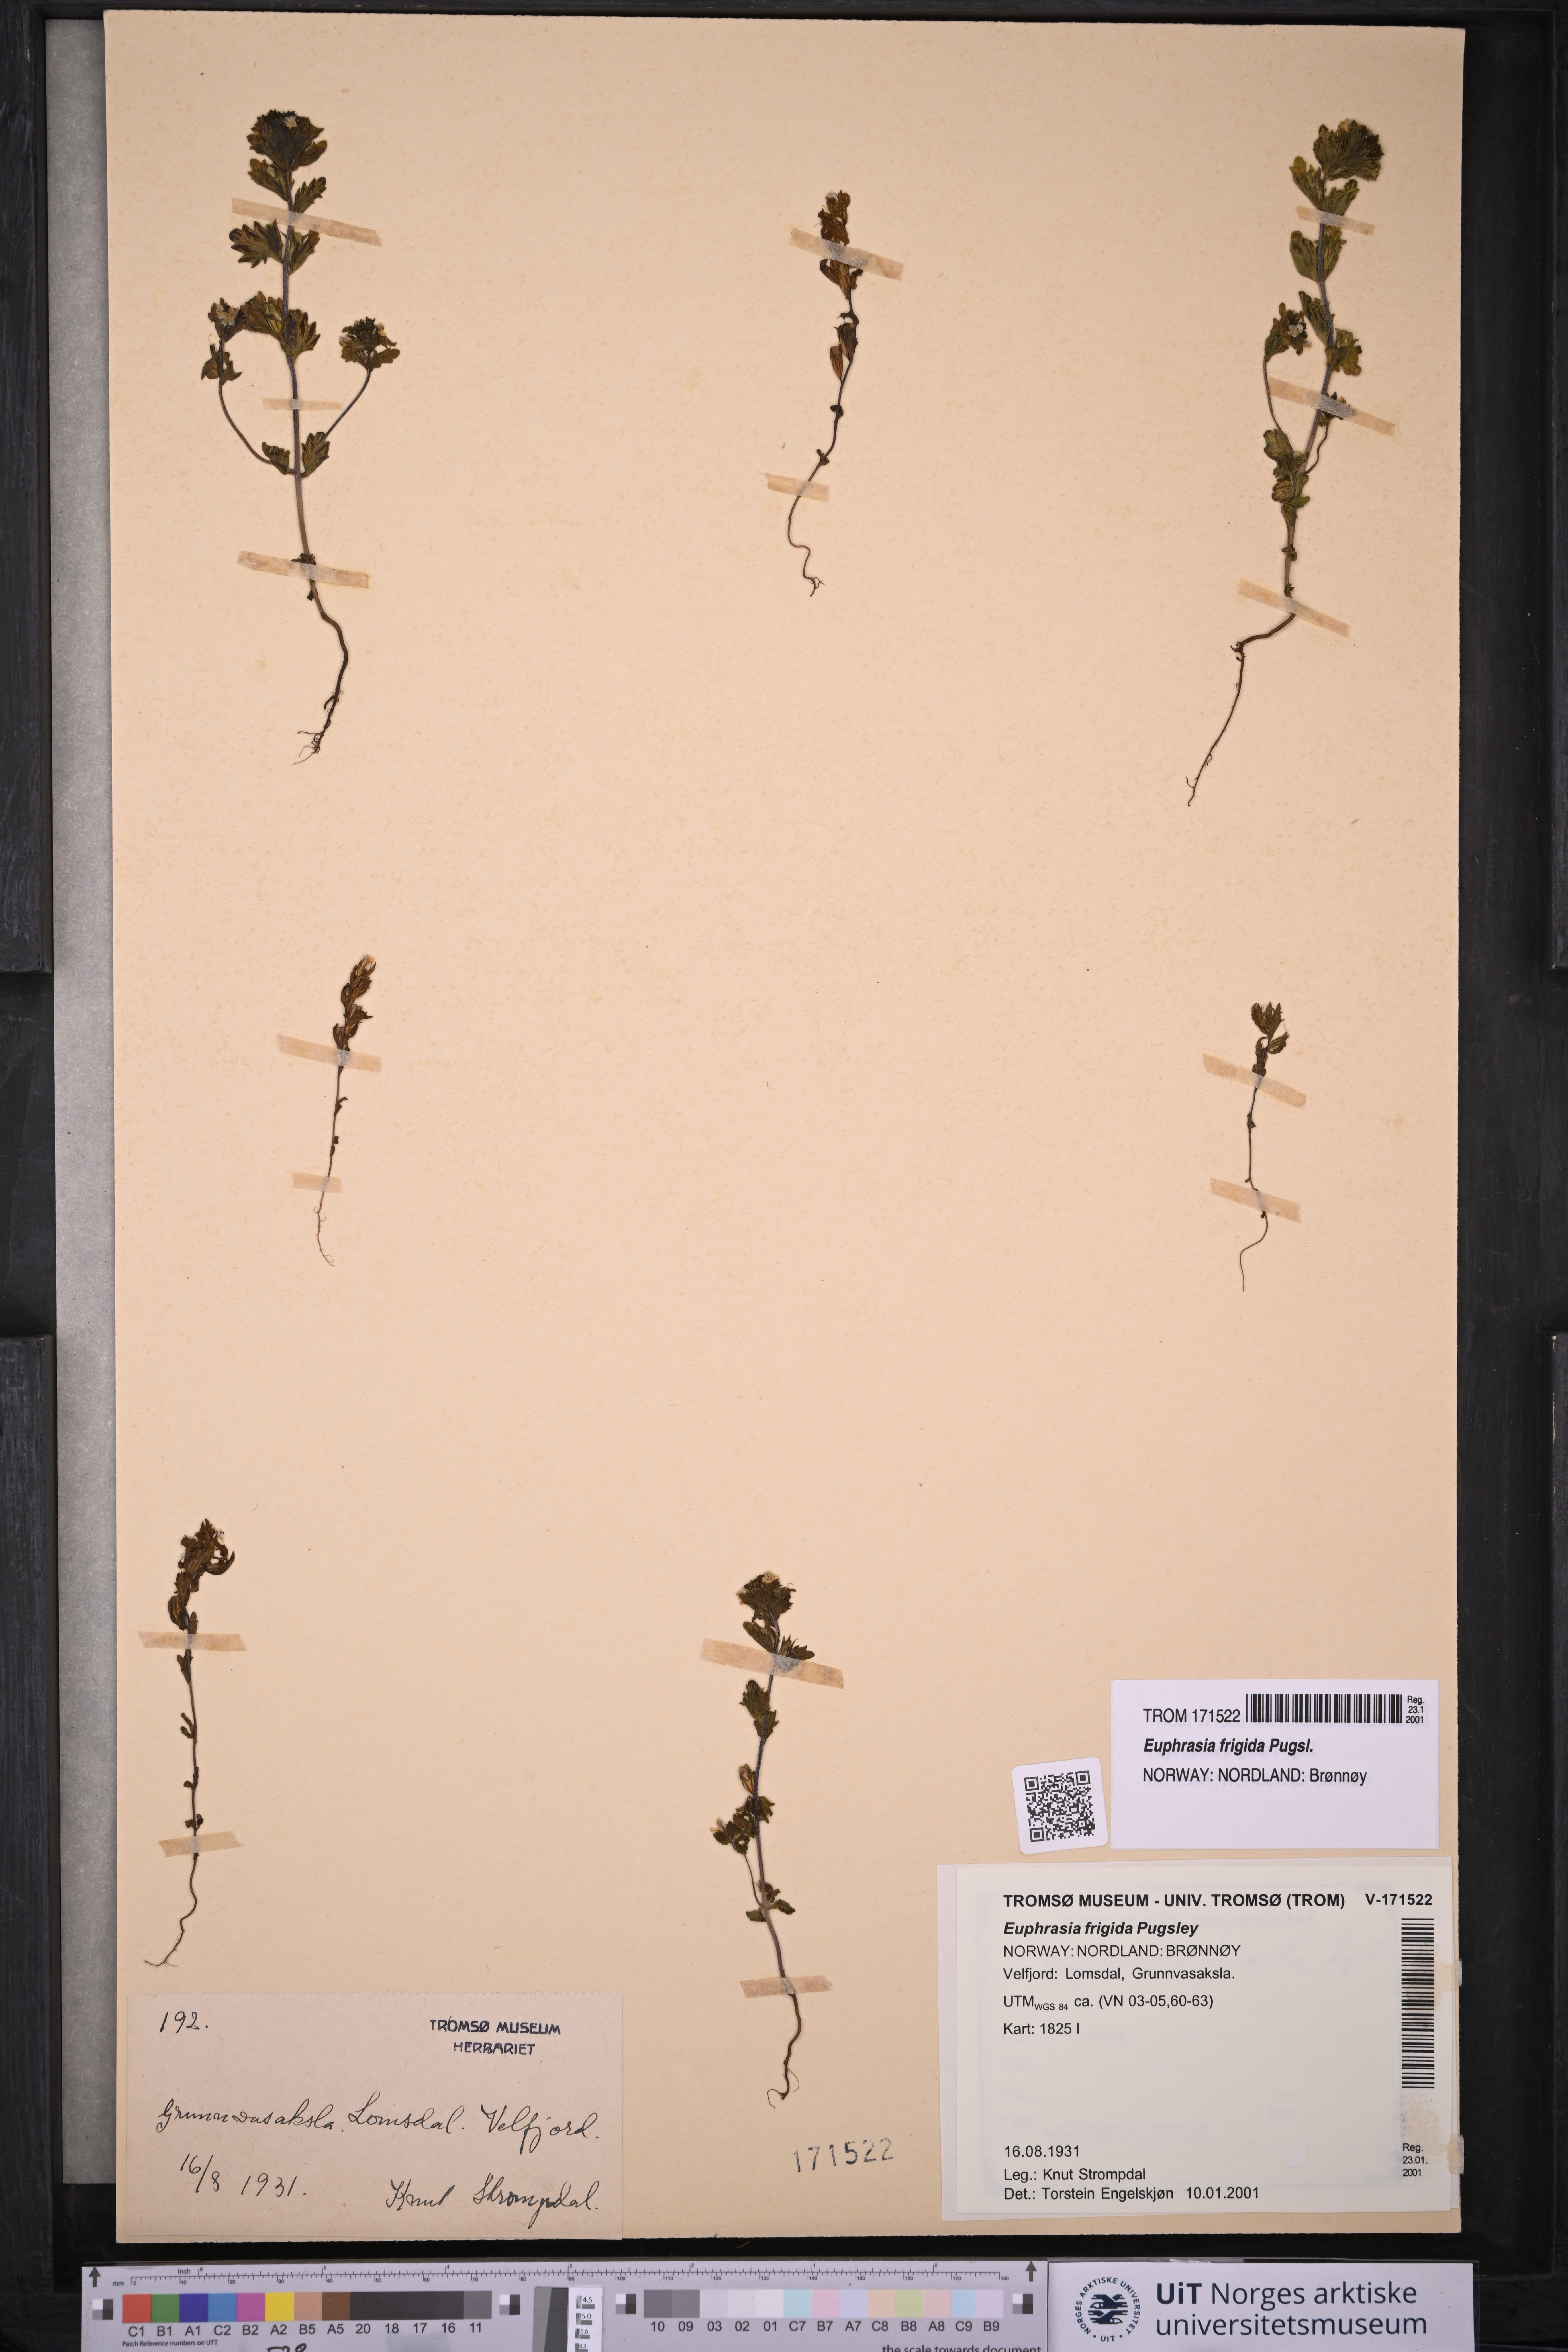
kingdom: Plantae
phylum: Tracheophyta
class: Magnoliopsida
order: Lamiales
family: Orobanchaceae
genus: Euphrasia
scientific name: Euphrasia frigida
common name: An eyebright
